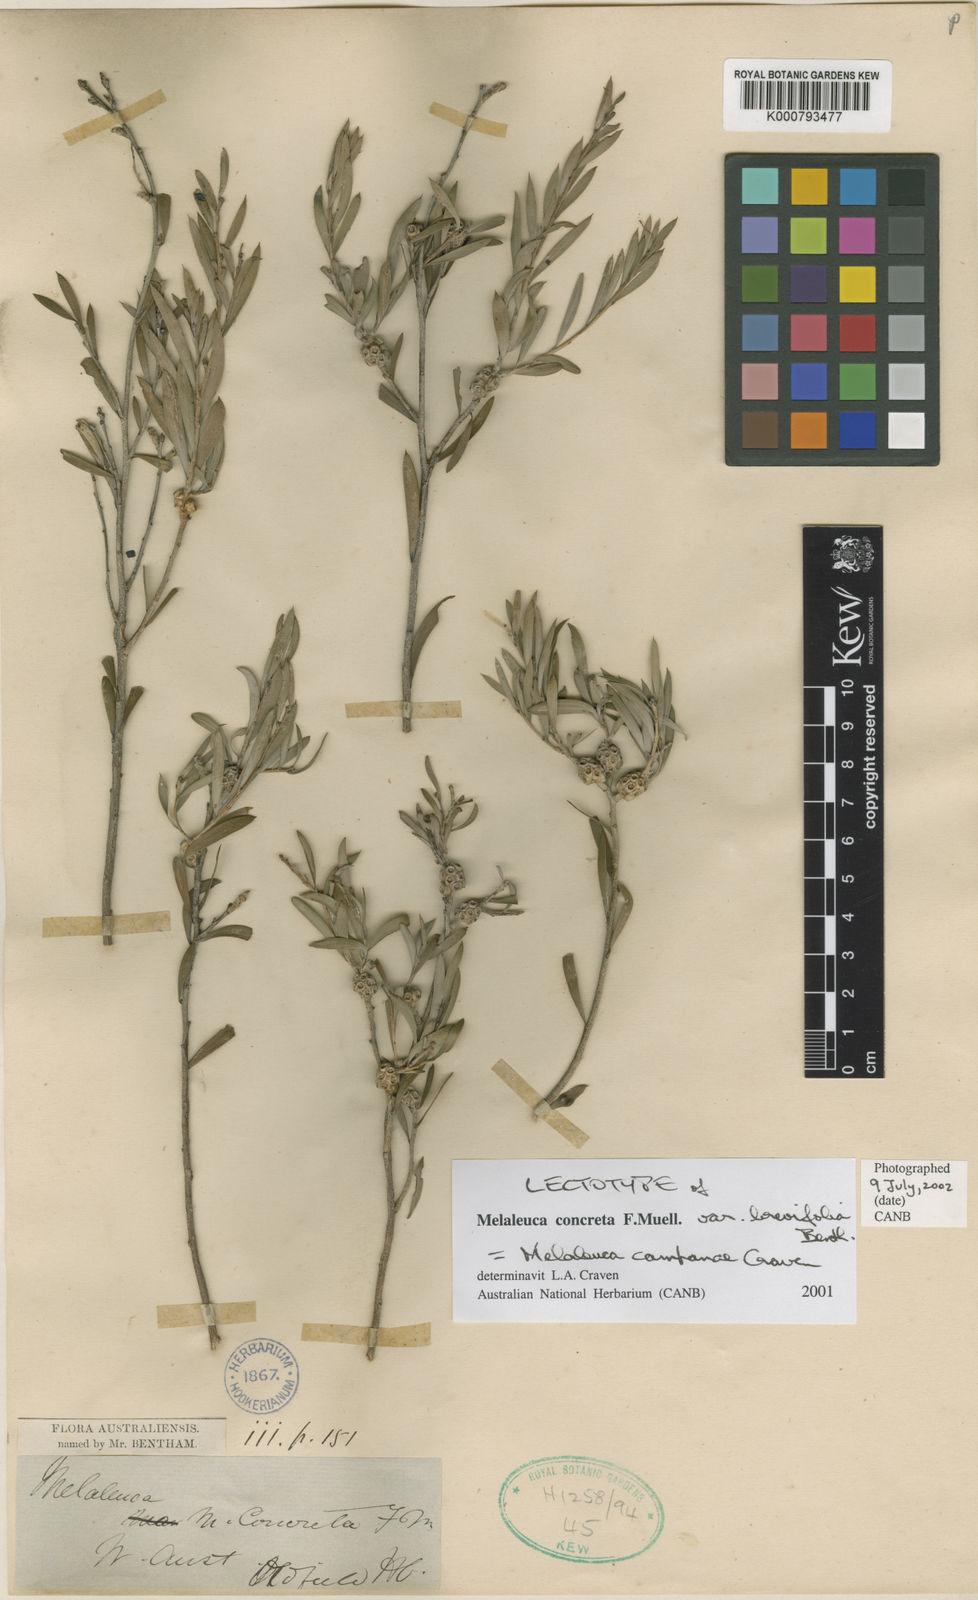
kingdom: Plantae
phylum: Tracheophyta
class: Magnoliopsida
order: Myrtales
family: Myrtaceae
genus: Melaleuca
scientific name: Melaleuca concreta
